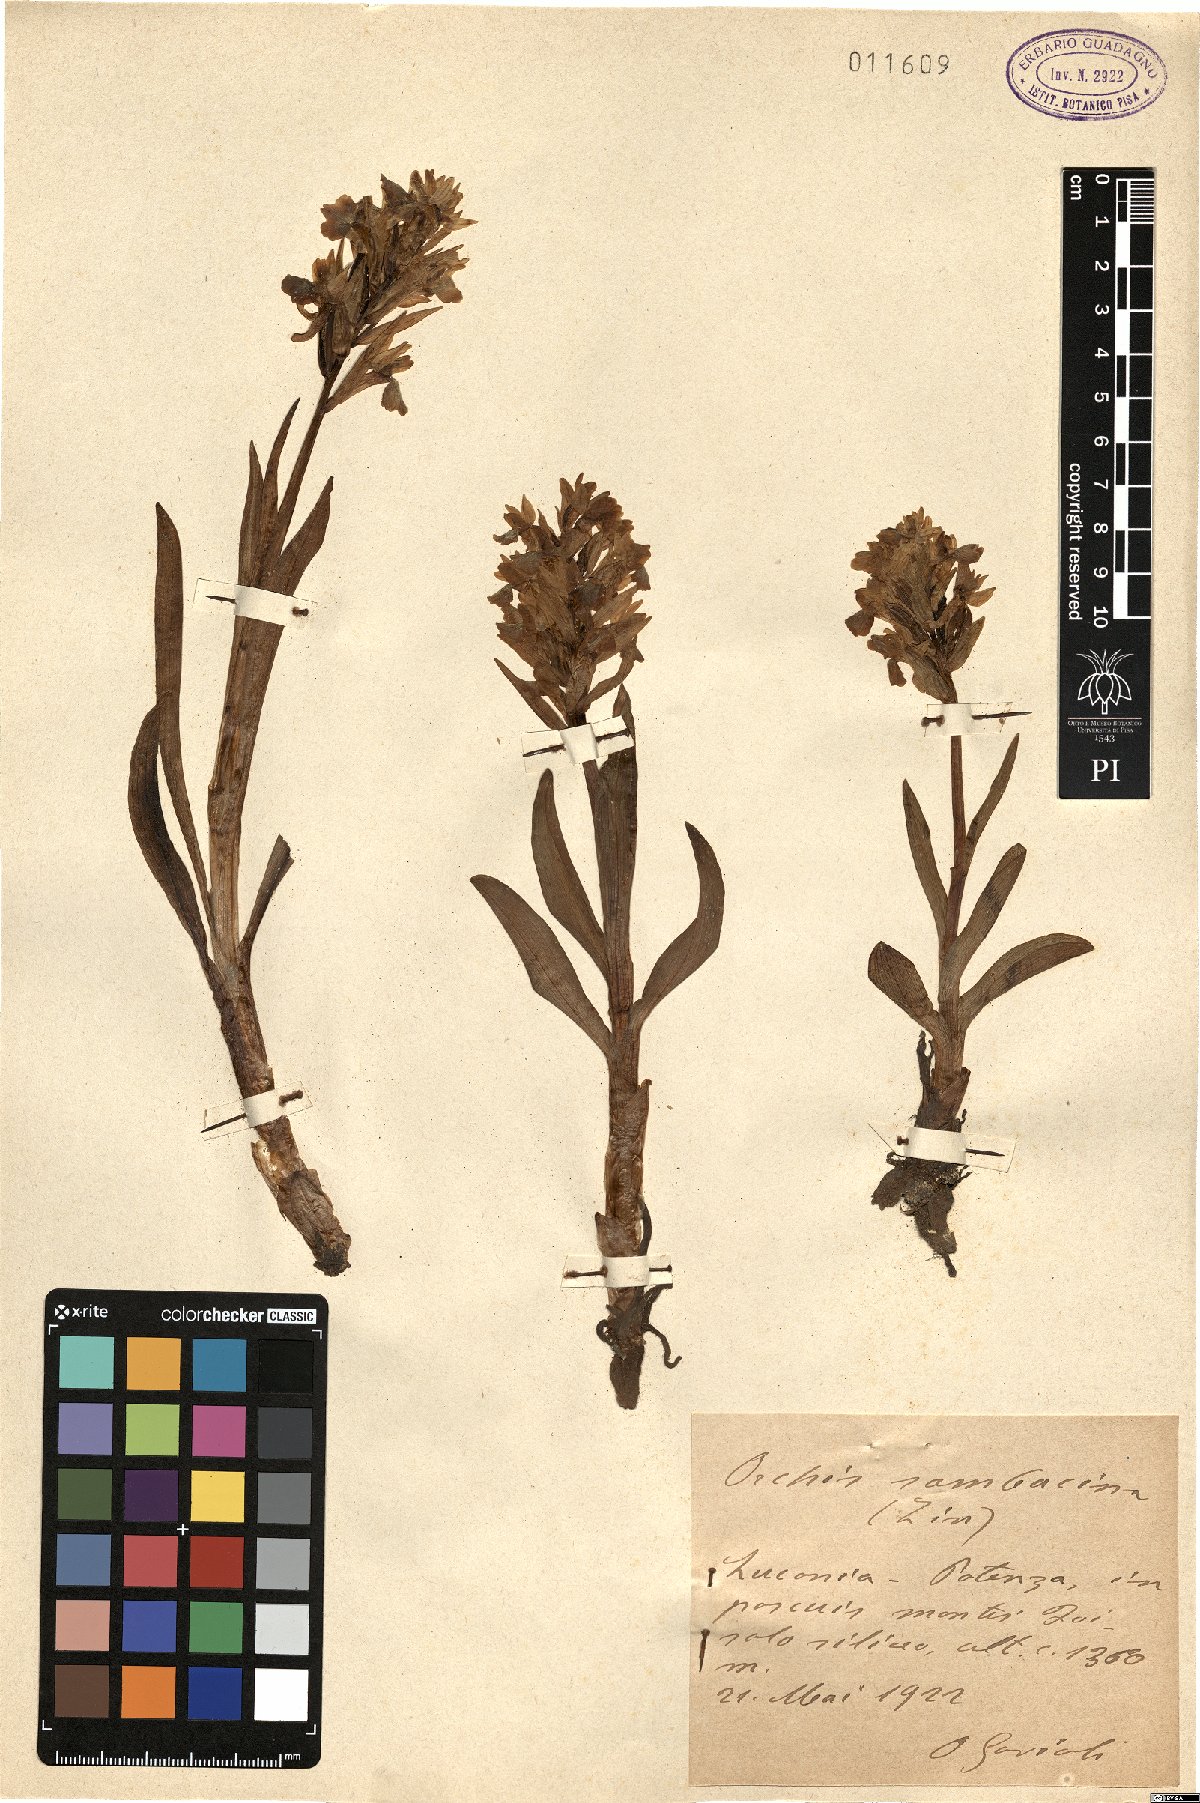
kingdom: Plantae
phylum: Tracheophyta
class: Liliopsida
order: Asparagales
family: Orchidaceae
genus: Dactylorhiza
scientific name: Dactylorhiza sambucina
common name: Elder-flowered orchid
